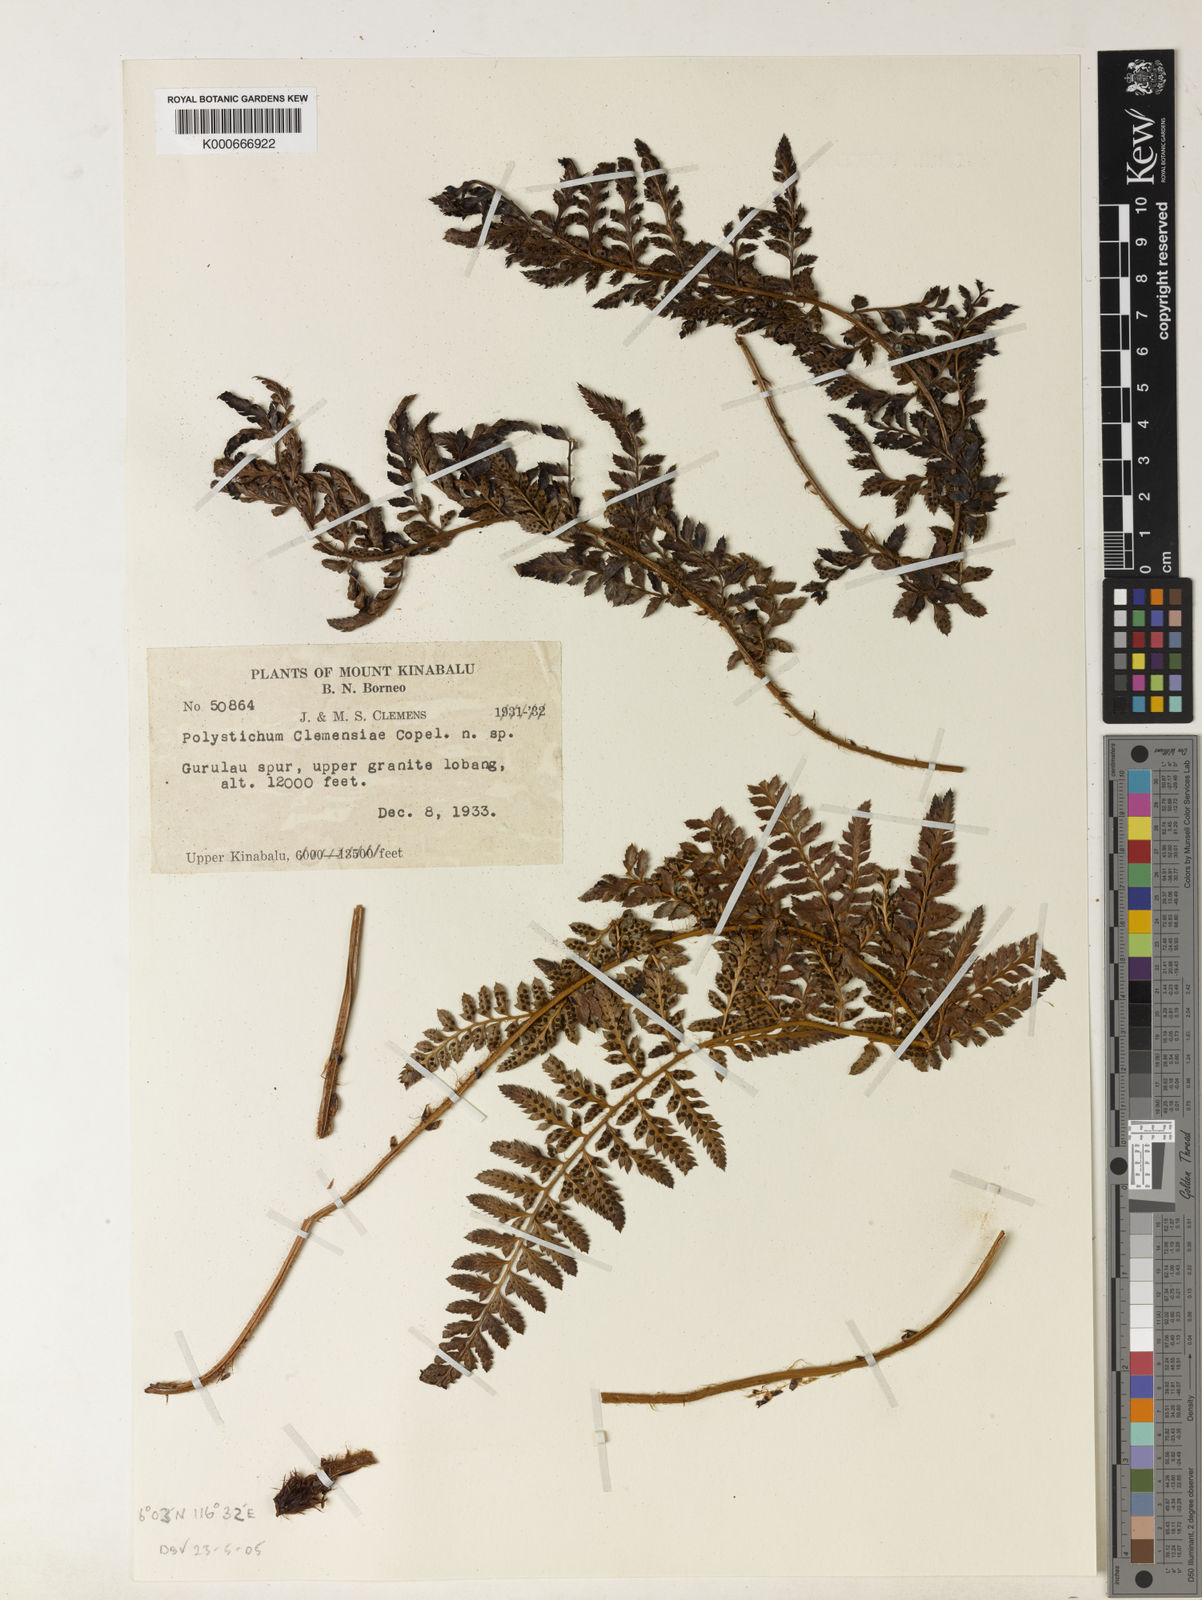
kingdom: Plantae
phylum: Tracheophyta
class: Polypodiopsida
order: Polypodiales
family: Dryopteridaceae
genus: Polystichum
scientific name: Polystichum kinabaluense
